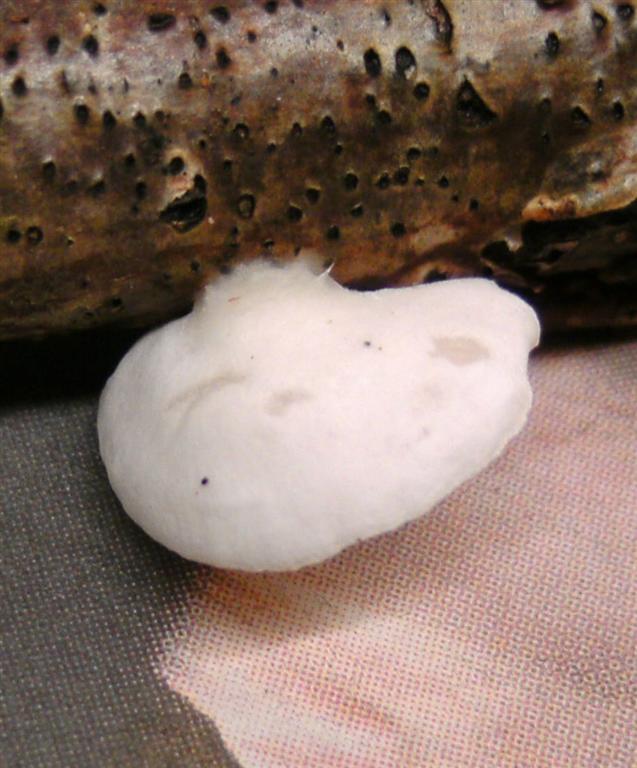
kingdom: Fungi
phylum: Basidiomycota
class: Agaricomycetes
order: Agaricales
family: Crepidotaceae
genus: Crepidotus
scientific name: Crepidotus cesatii
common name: almindelig muslingesvamp
